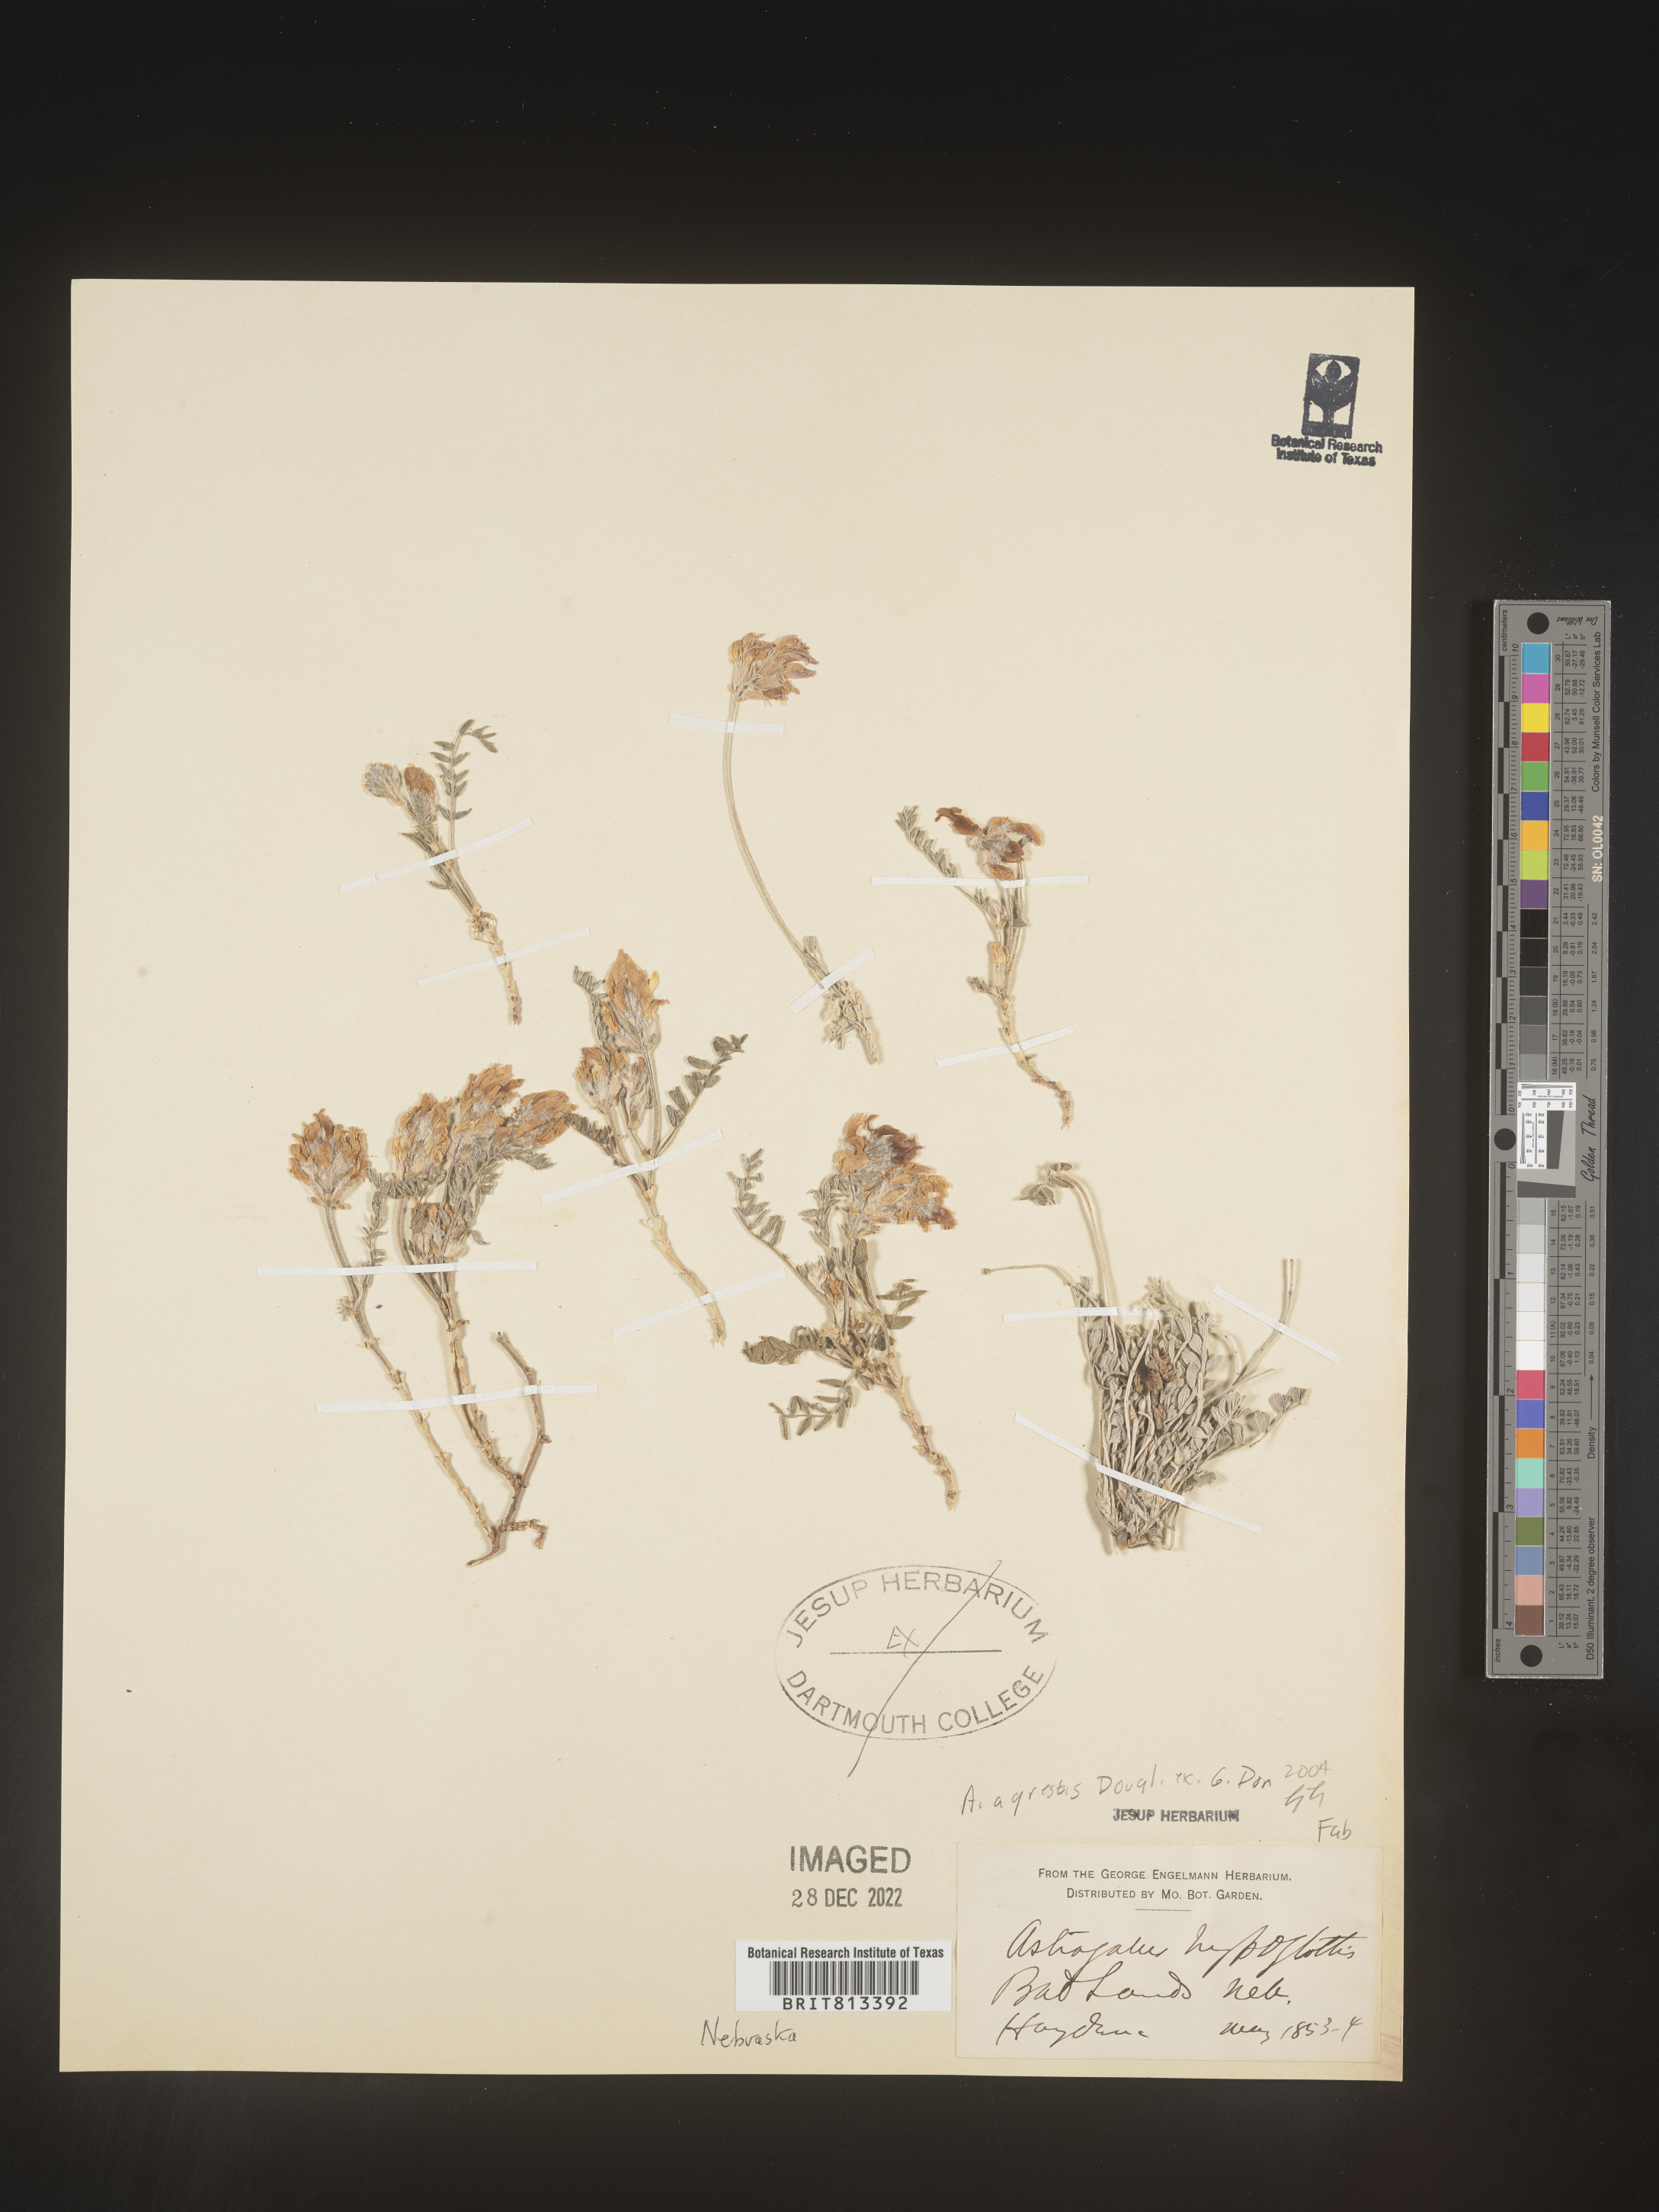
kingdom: Plantae
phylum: Tracheophyta
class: Magnoliopsida
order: Fabales
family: Fabaceae
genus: Astragalus
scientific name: Astragalus agrestis
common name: Field milk-vetch
